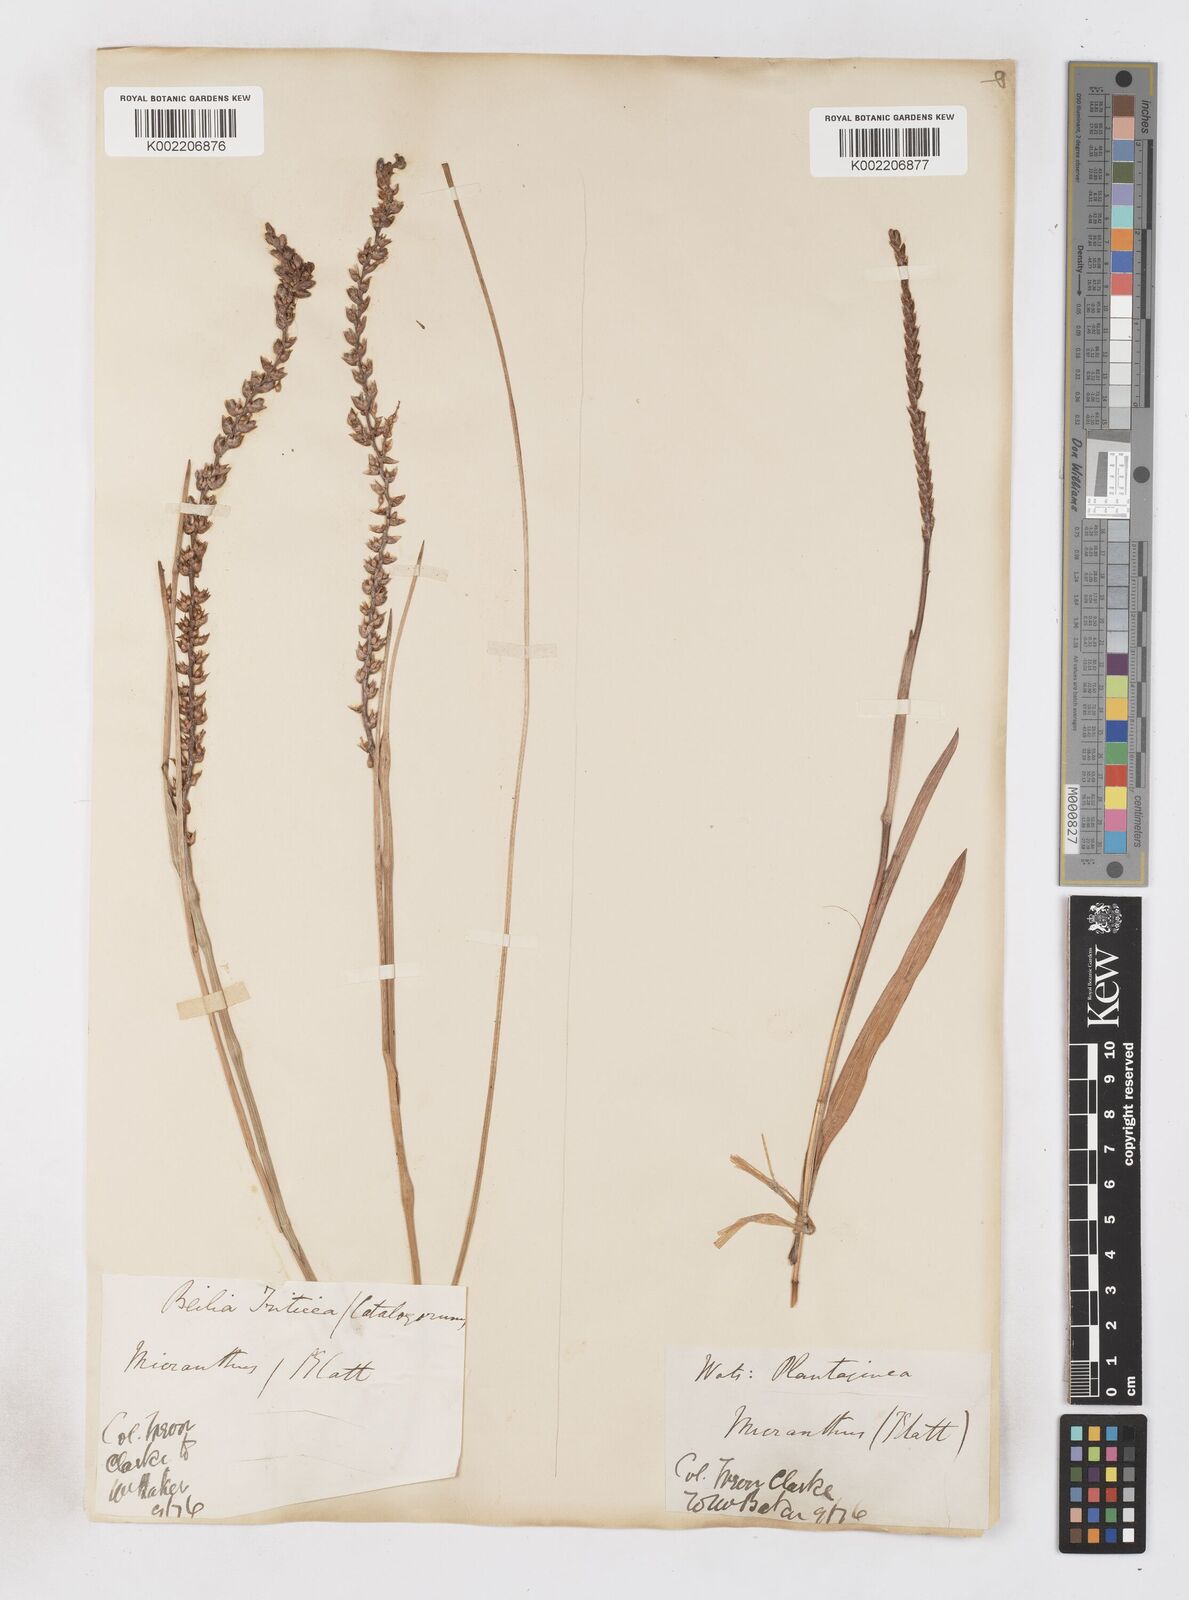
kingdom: Plantae
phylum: Tracheophyta
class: Liliopsida
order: Asparagales
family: Iridaceae
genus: Micranthus
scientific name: Micranthus plantagineus
